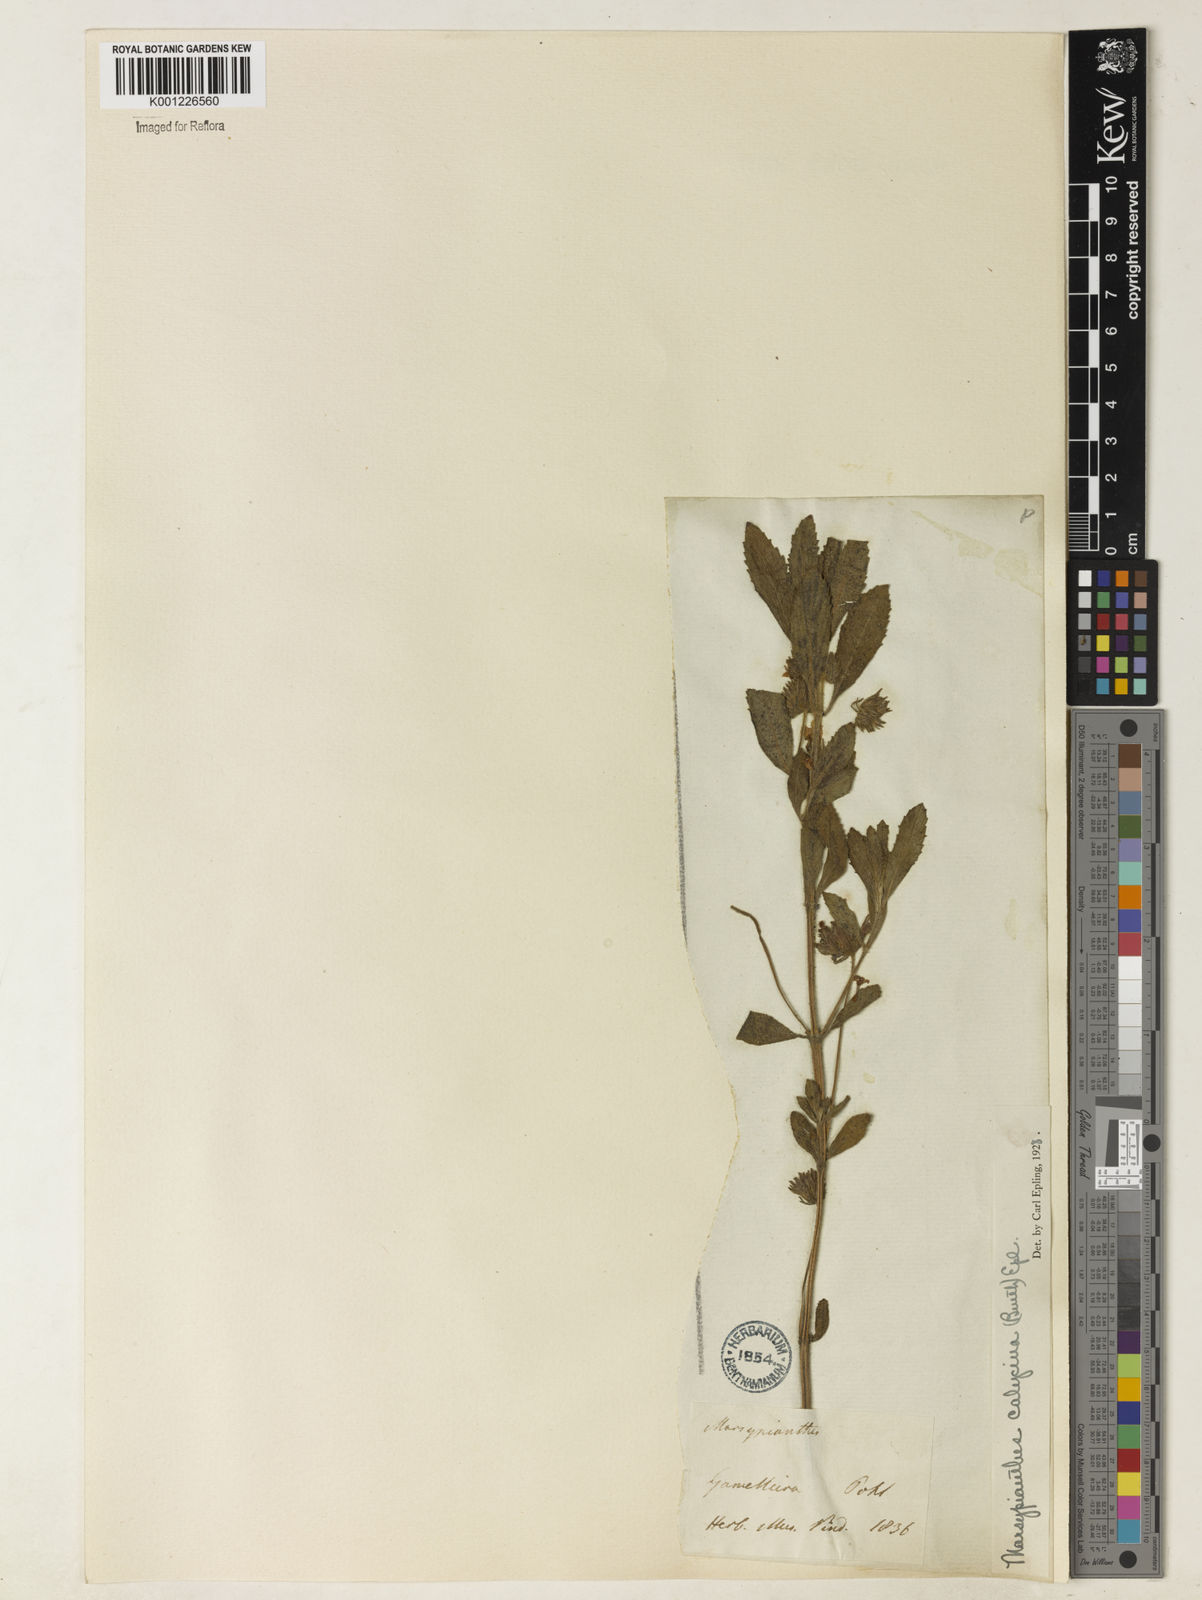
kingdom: Plantae
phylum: Tracheophyta
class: Magnoliopsida
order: Lamiales
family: Lamiaceae
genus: Marsypianthes
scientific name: Marsypianthes burchellii
